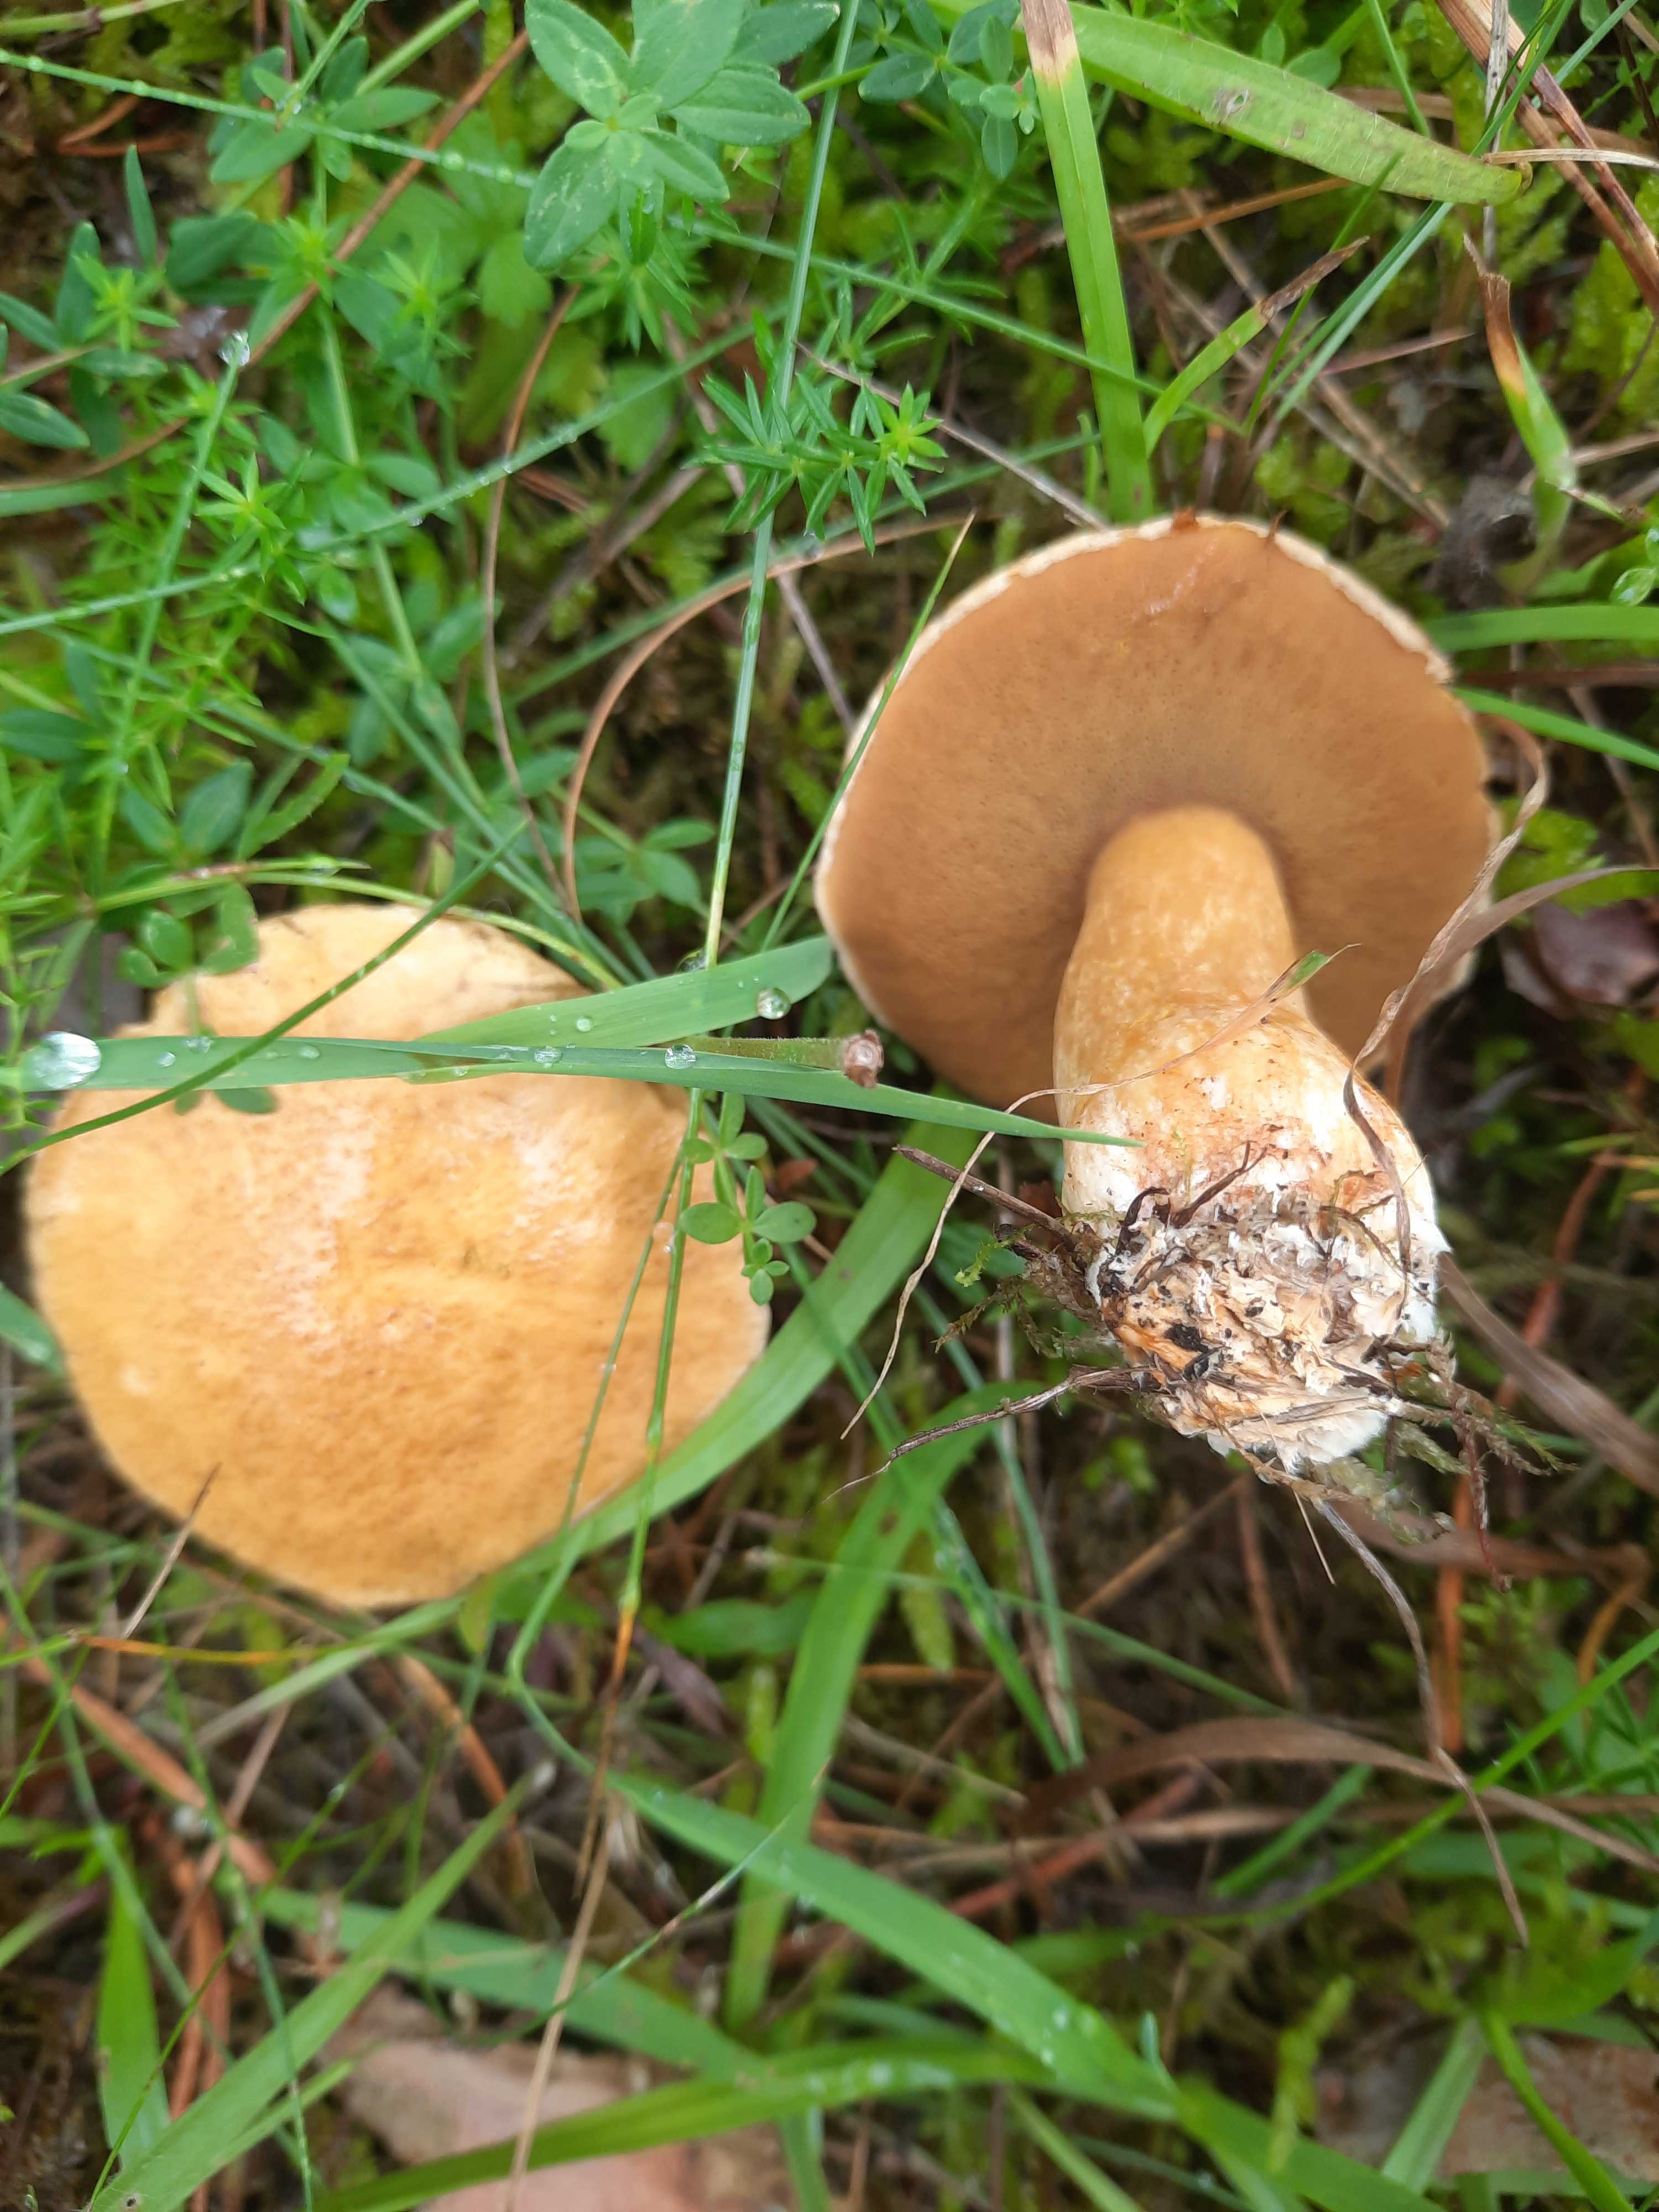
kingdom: Fungi
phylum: Basidiomycota
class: Agaricomycetes
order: Boletales
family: Suillaceae
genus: Suillus
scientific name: Suillus variegatus
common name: broget slimrørhat
